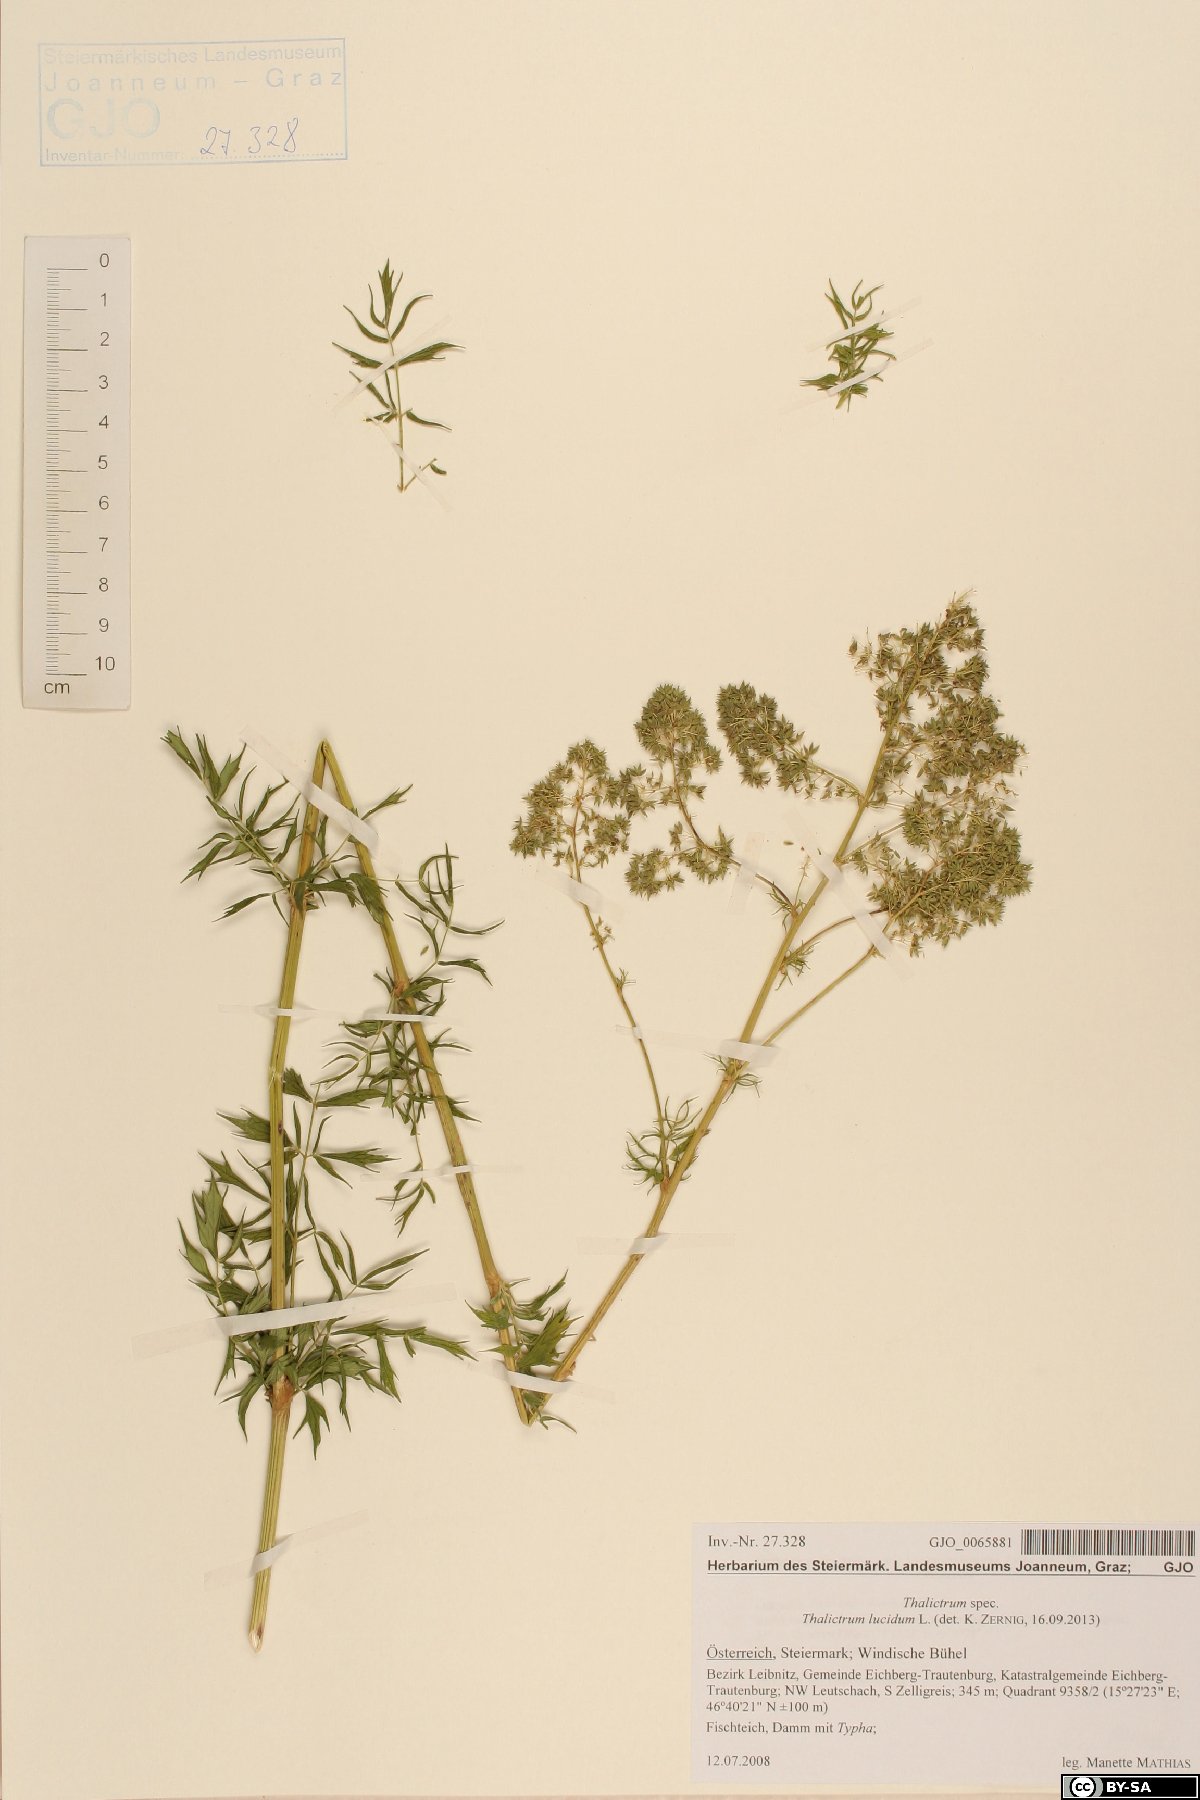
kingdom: Plantae
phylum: Tracheophyta
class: Magnoliopsida
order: Ranunculales
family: Ranunculaceae
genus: Thalictrum
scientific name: Thalictrum lucidum
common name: Shining meadow-rue
